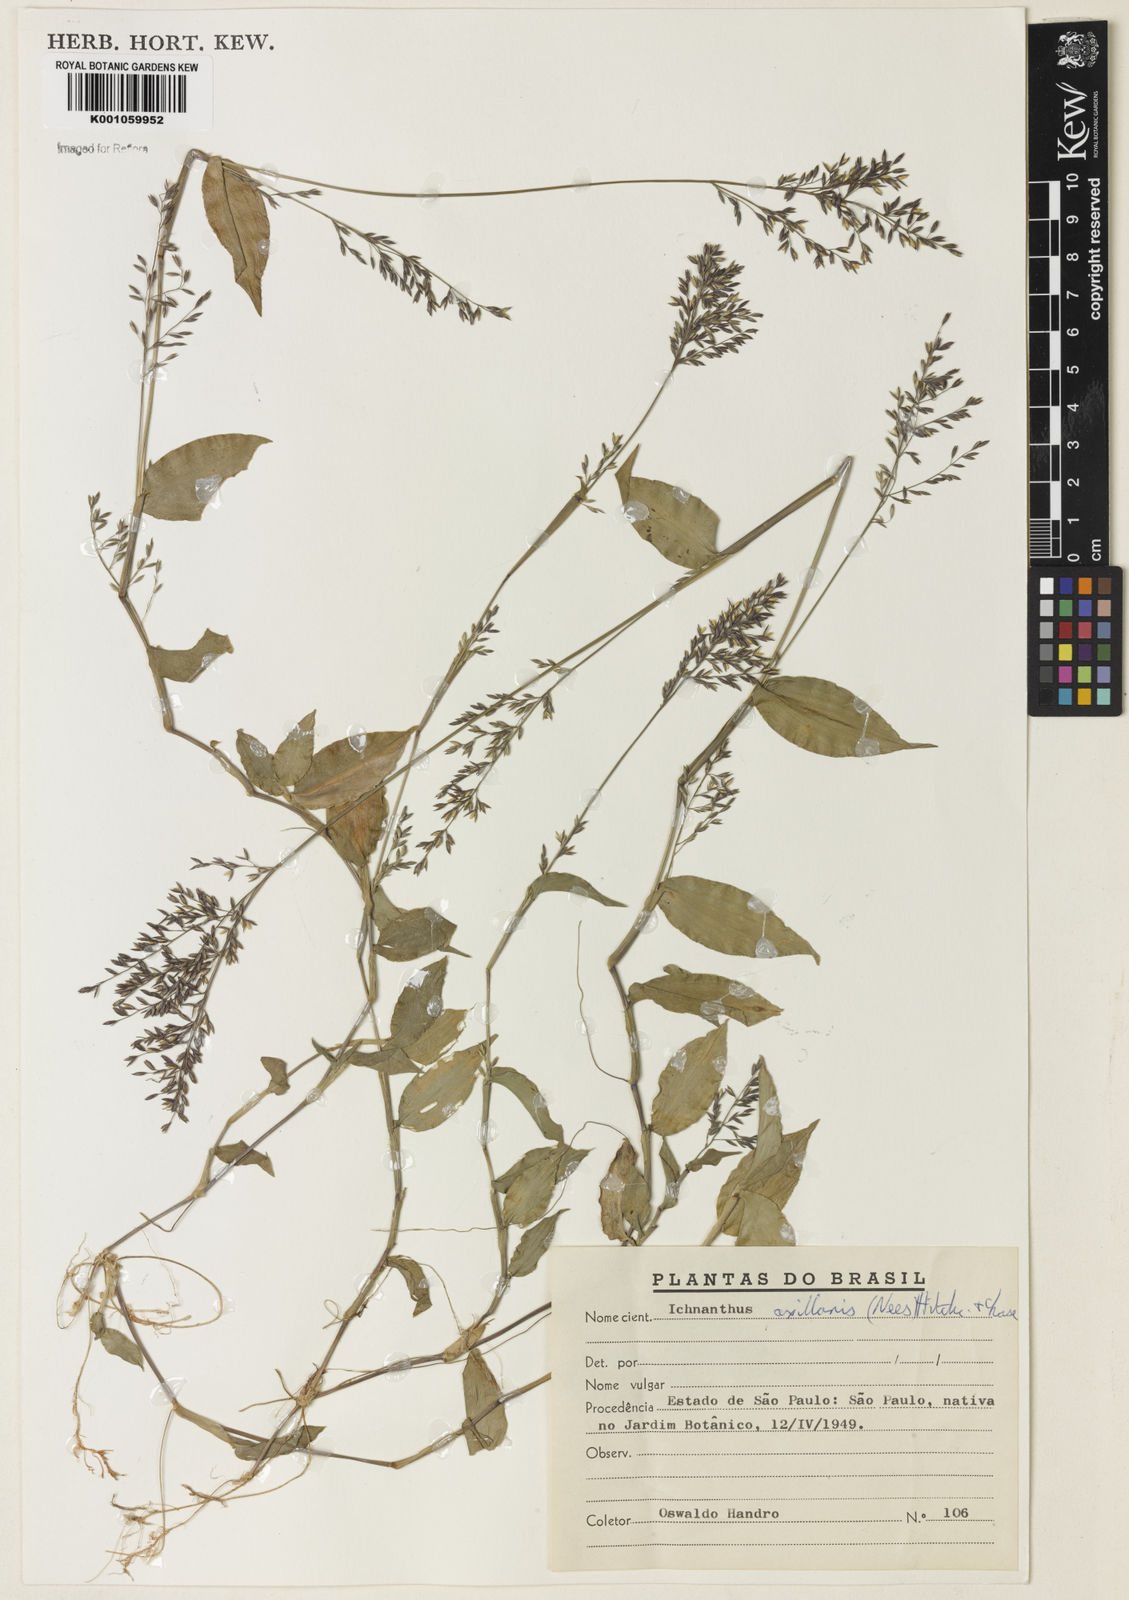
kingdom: Plantae
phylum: Tracheophyta
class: Liliopsida
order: Poales
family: Poaceae
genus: Ichnanthus
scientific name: Ichnanthus pallens
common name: Water grass
